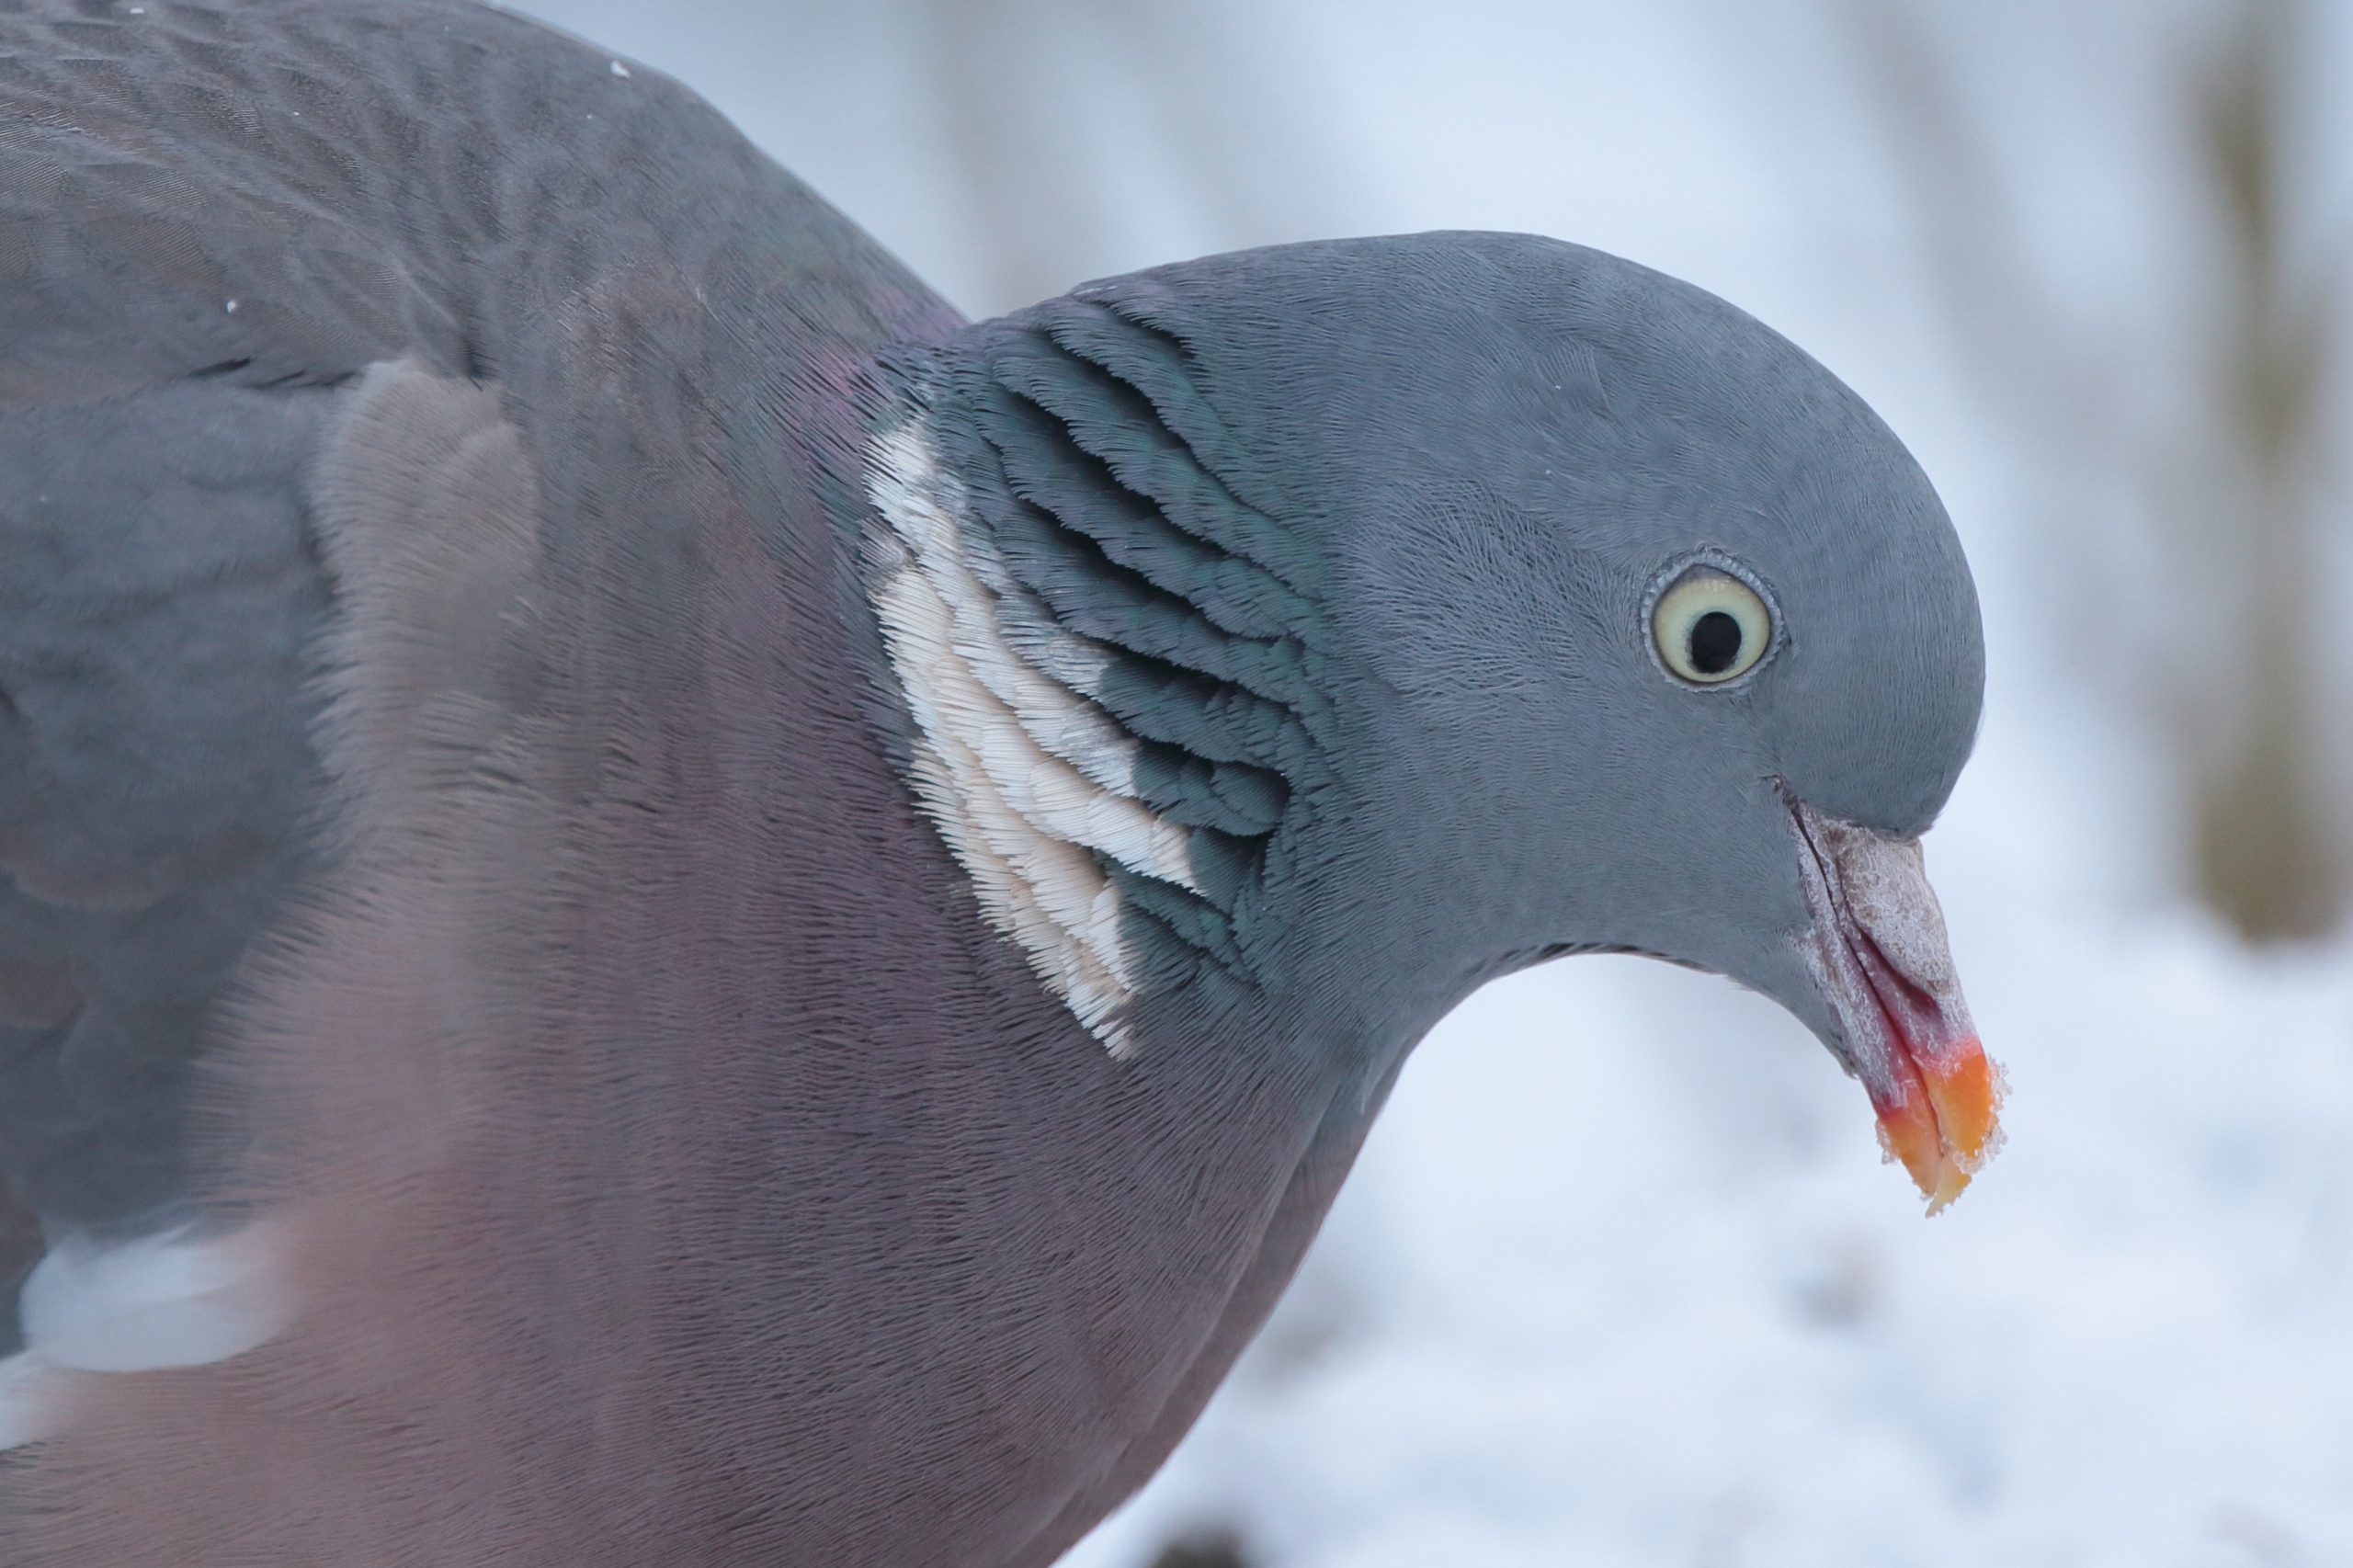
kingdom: Animalia
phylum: Chordata
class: Aves
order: Columbiformes
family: Columbidae
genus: Columba
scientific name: Columba palumbus
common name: Ringdue
